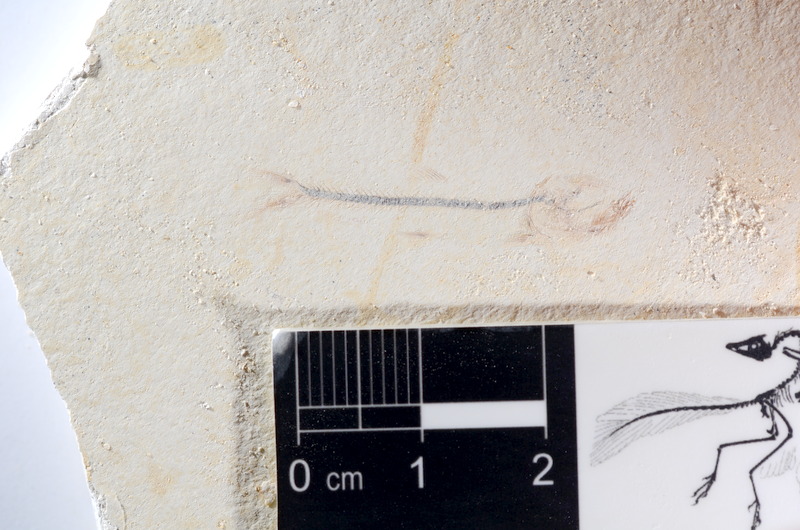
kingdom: Animalia
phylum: Chordata
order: Salmoniformes
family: Orthogonikleithridae
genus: Orthogonikleithrus
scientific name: Orthogonikleithrus hoelli
